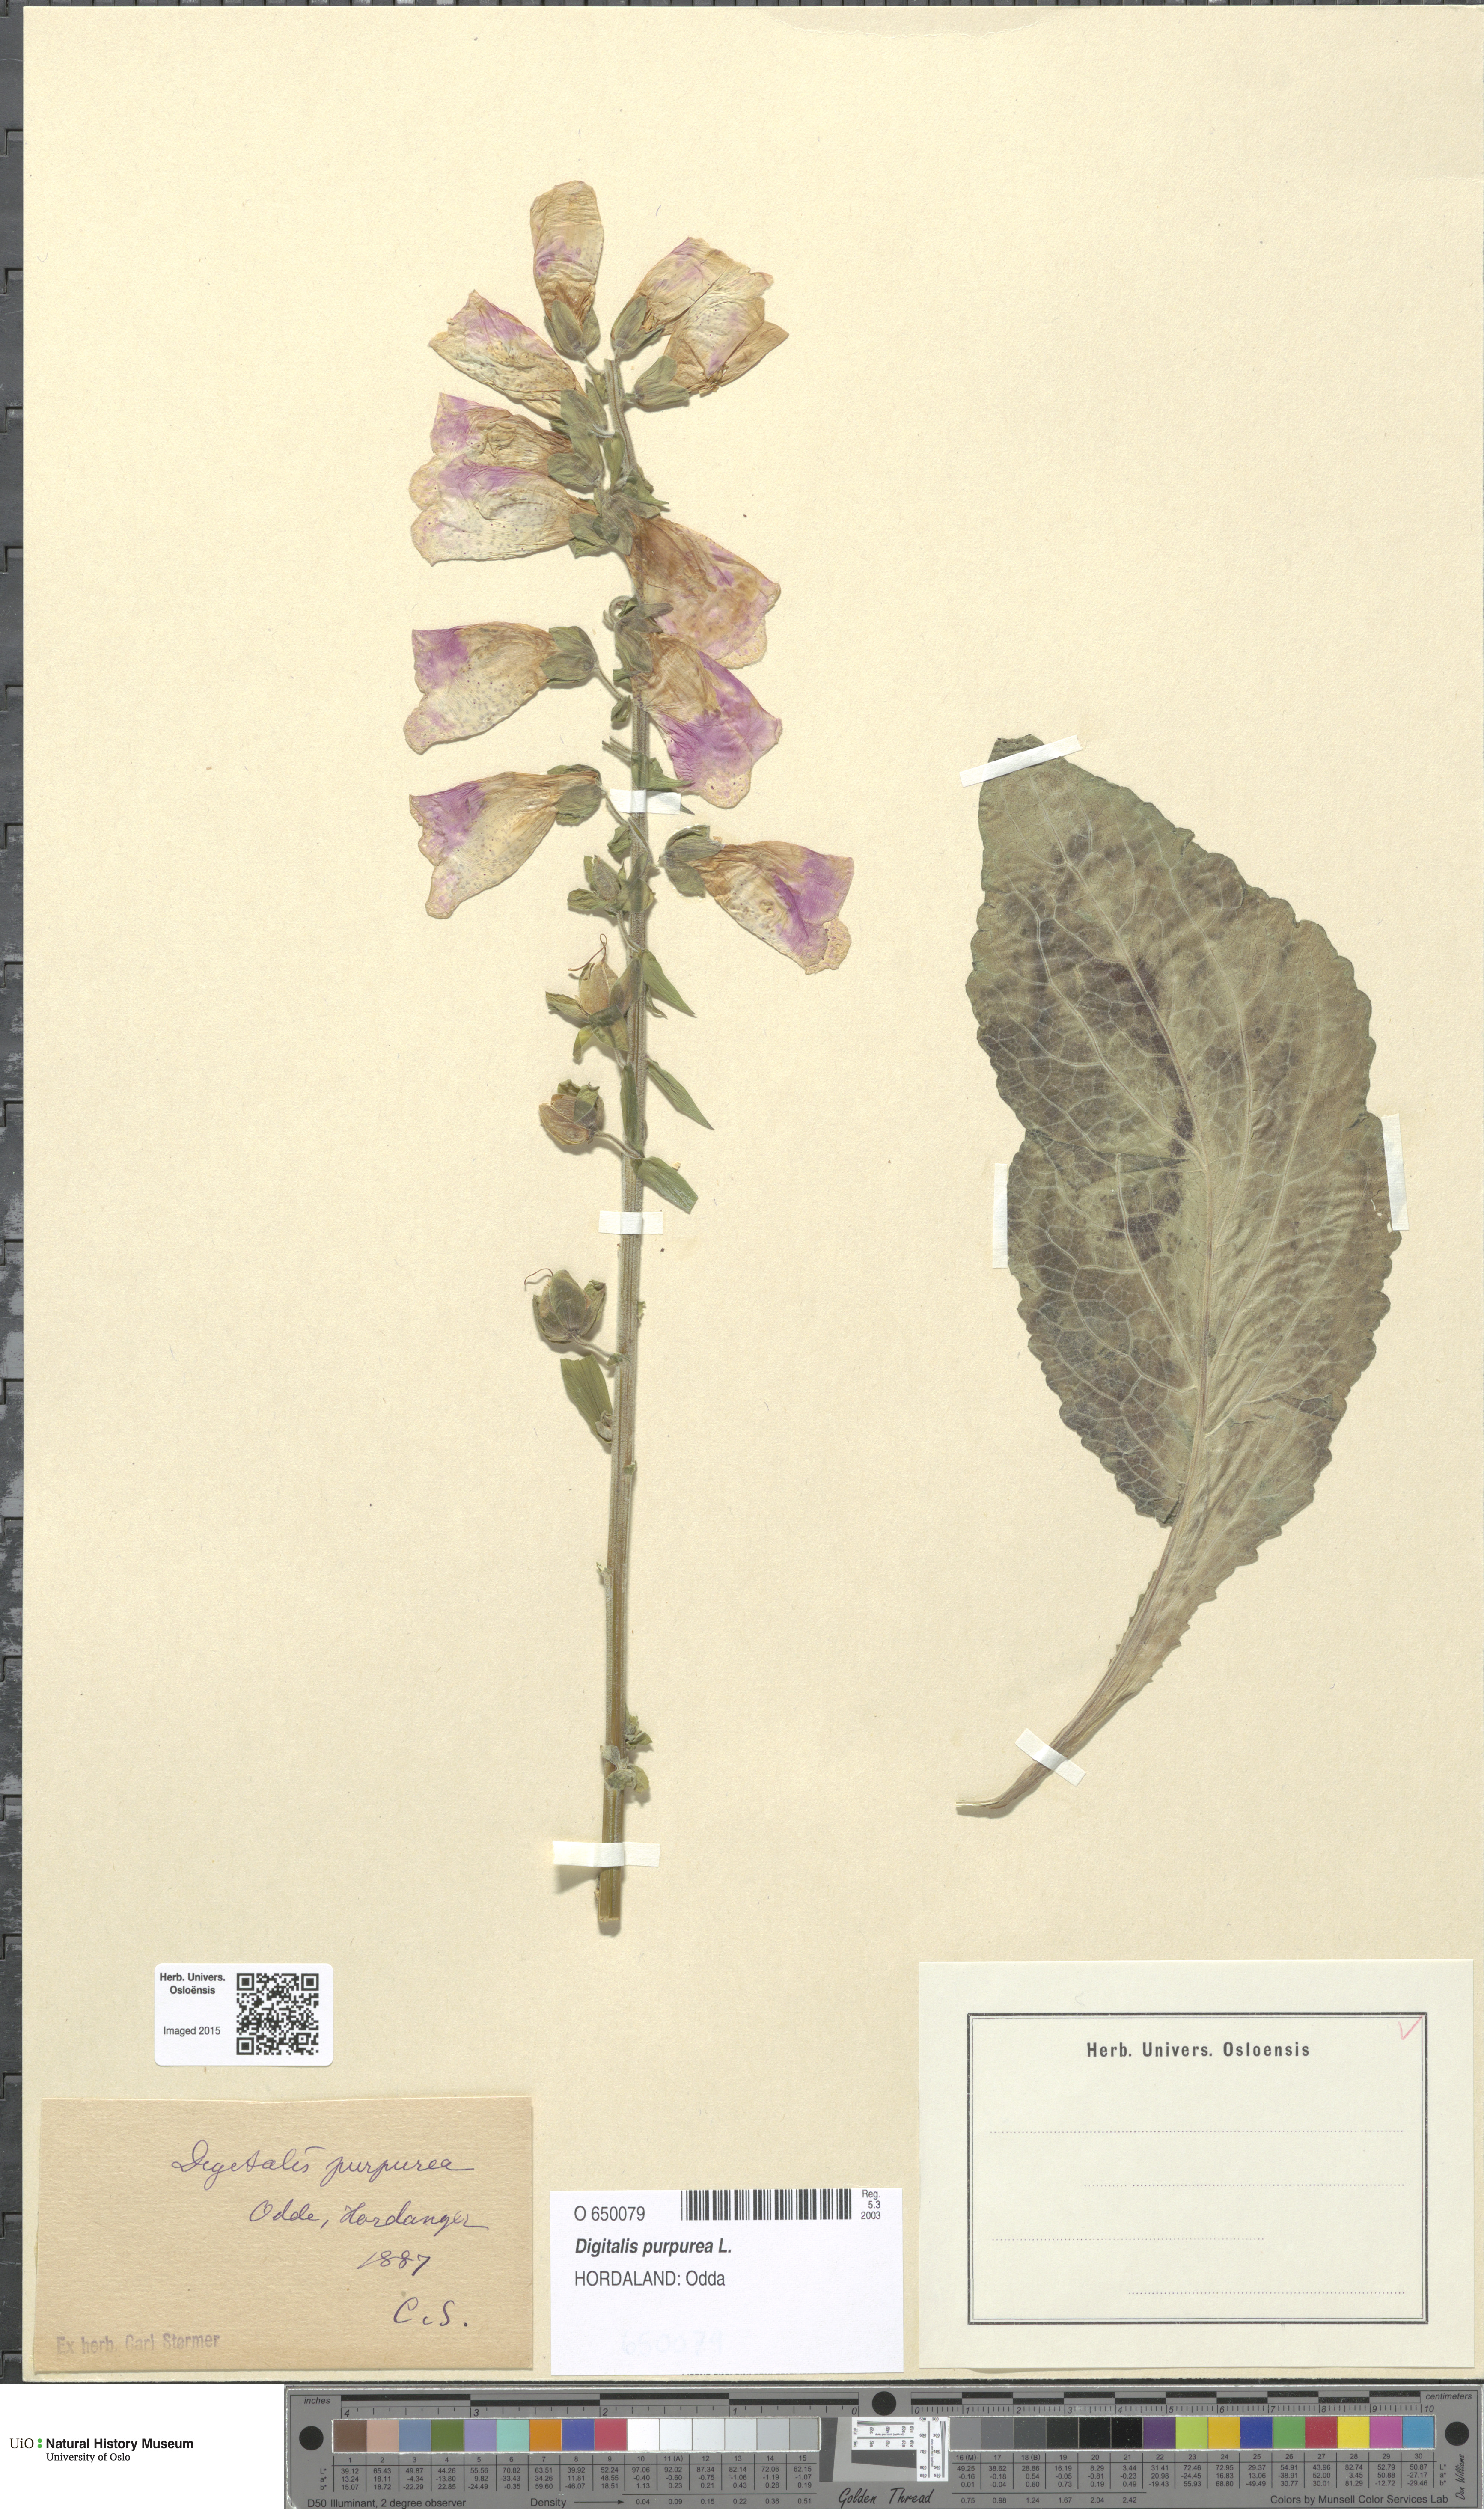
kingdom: Plantae
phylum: Tracheophyta
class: Magnoliopsida
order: Lamiales
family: Plantaginaceae
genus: Digitalis
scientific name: Digitalis purpurea
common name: Foxglove
